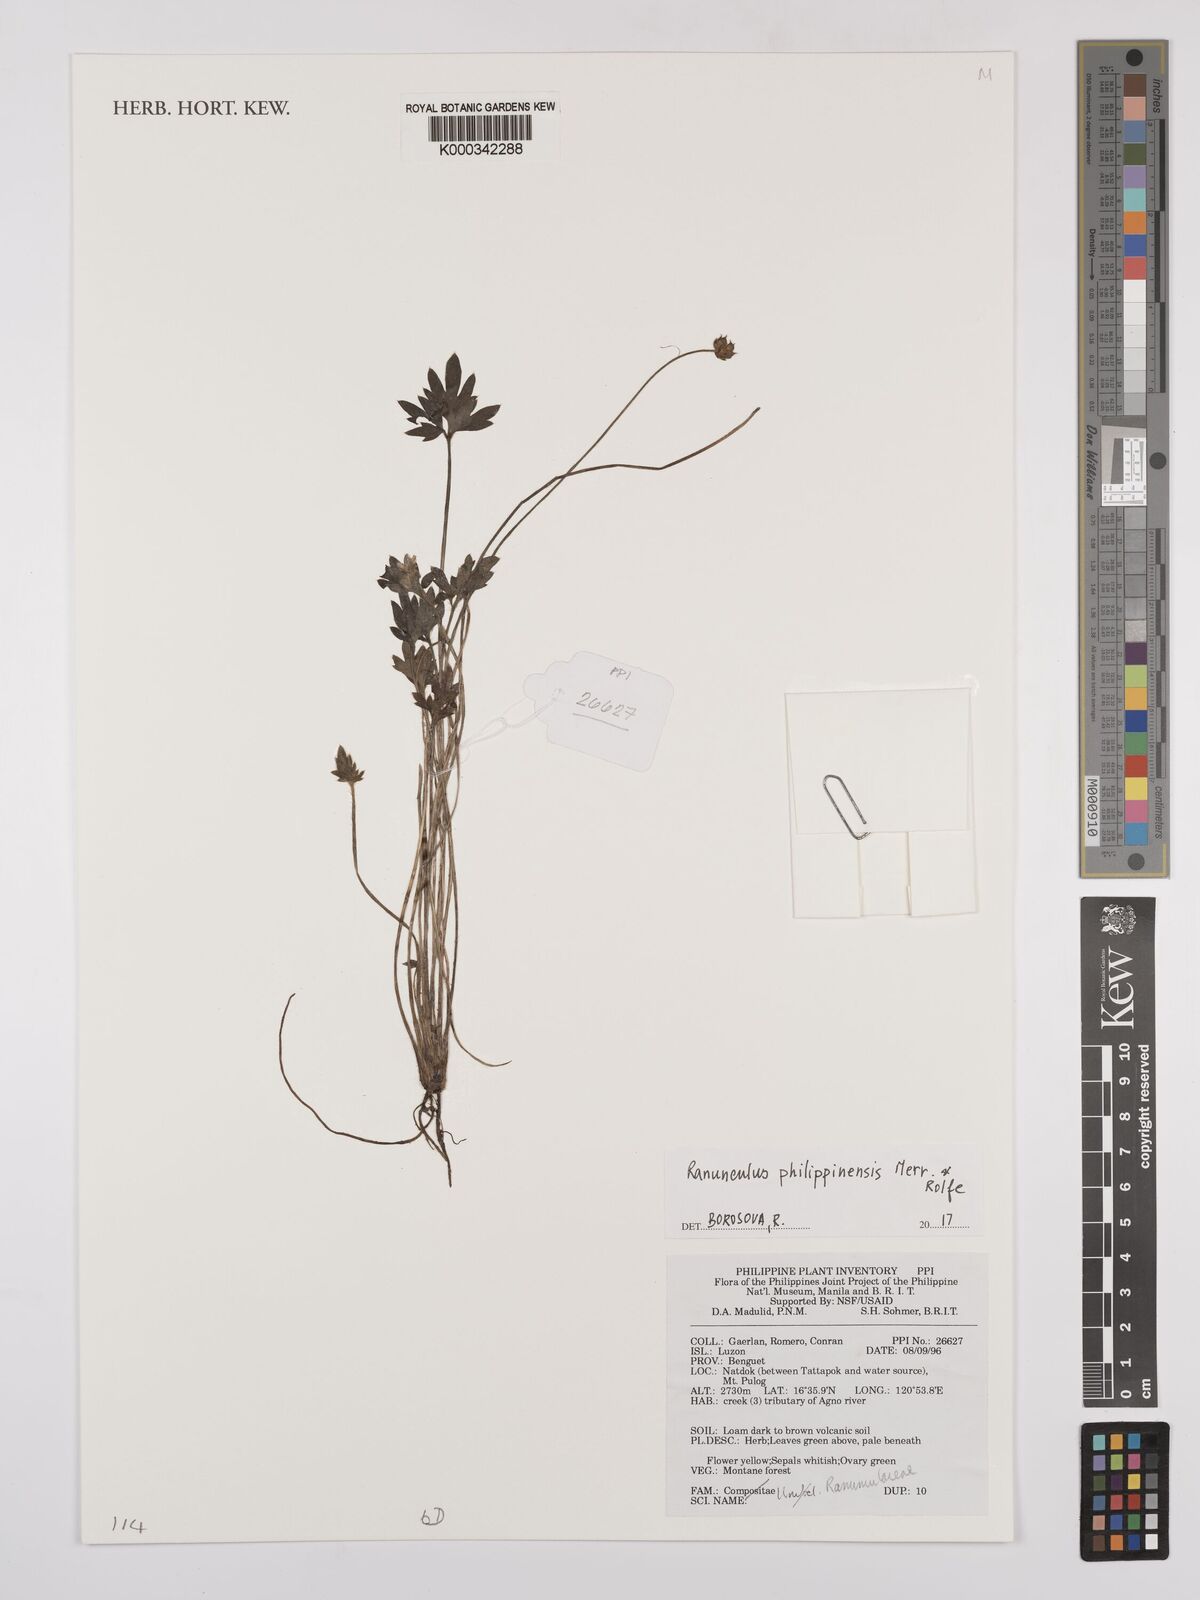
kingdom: Plantae
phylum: Tracheophyta
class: Magnoliopsida
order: Ranunculales
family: Ranunculaceae
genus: Ranunculus
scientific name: Ranunculus philippinensis
